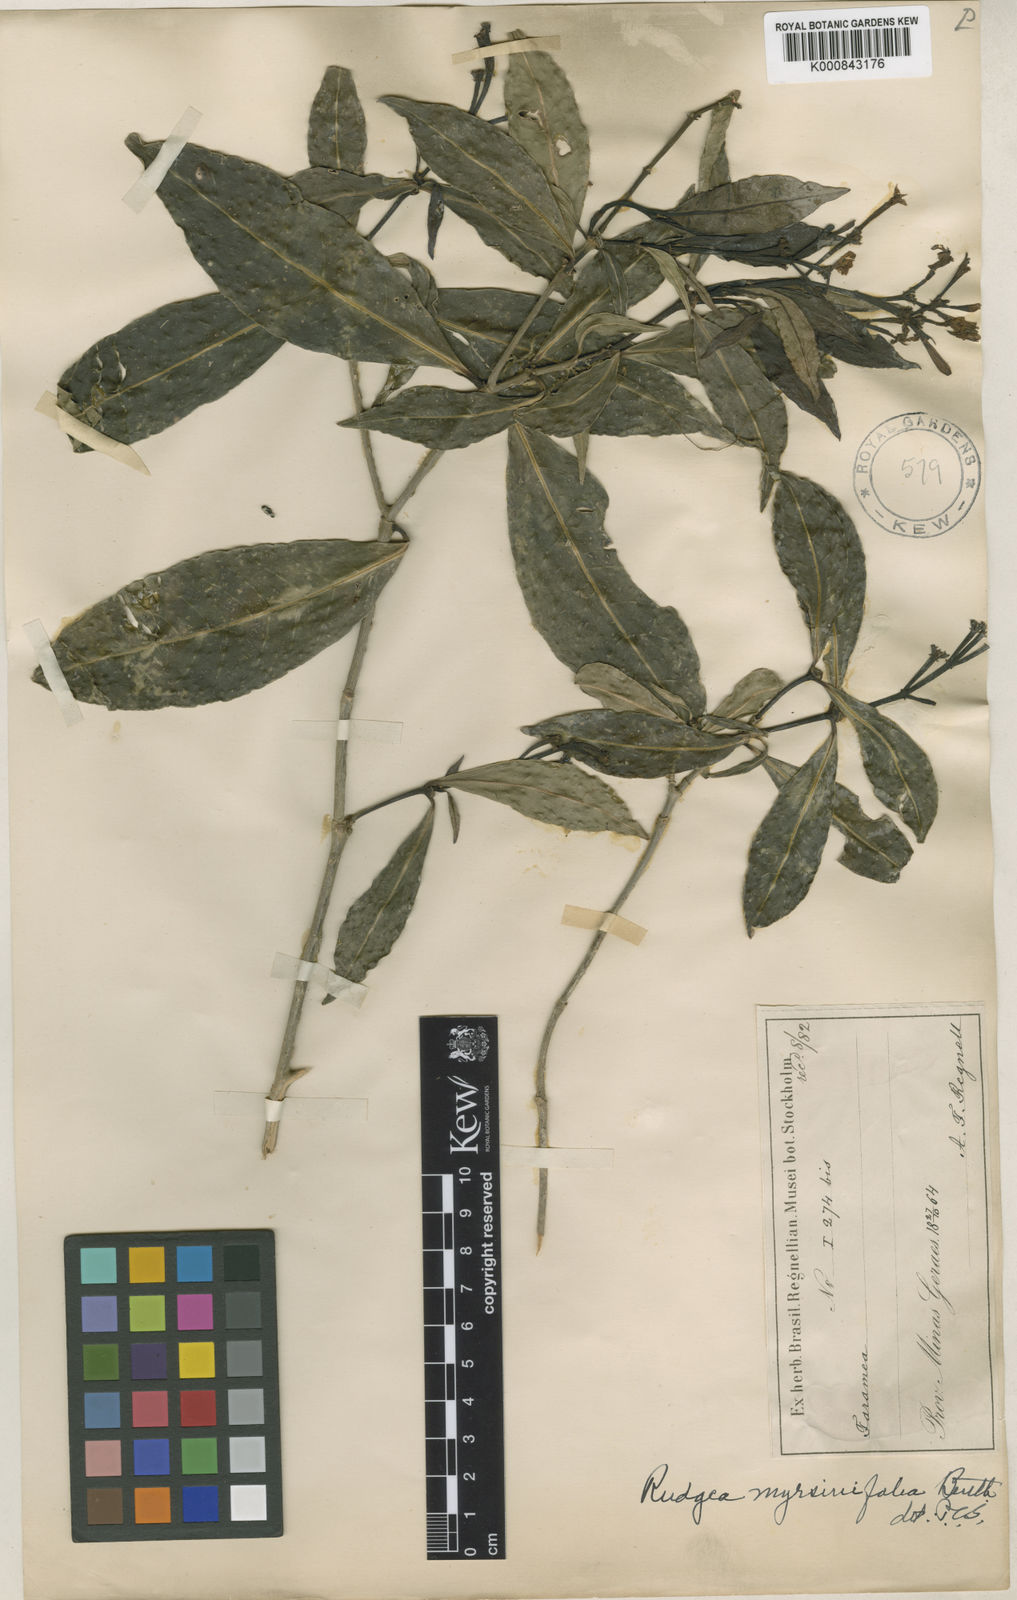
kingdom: Plantae
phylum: Tracheophyta
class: Magnoliopsida
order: Gentianales
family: Rubiaceae
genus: Rudgea
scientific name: Rudgea
